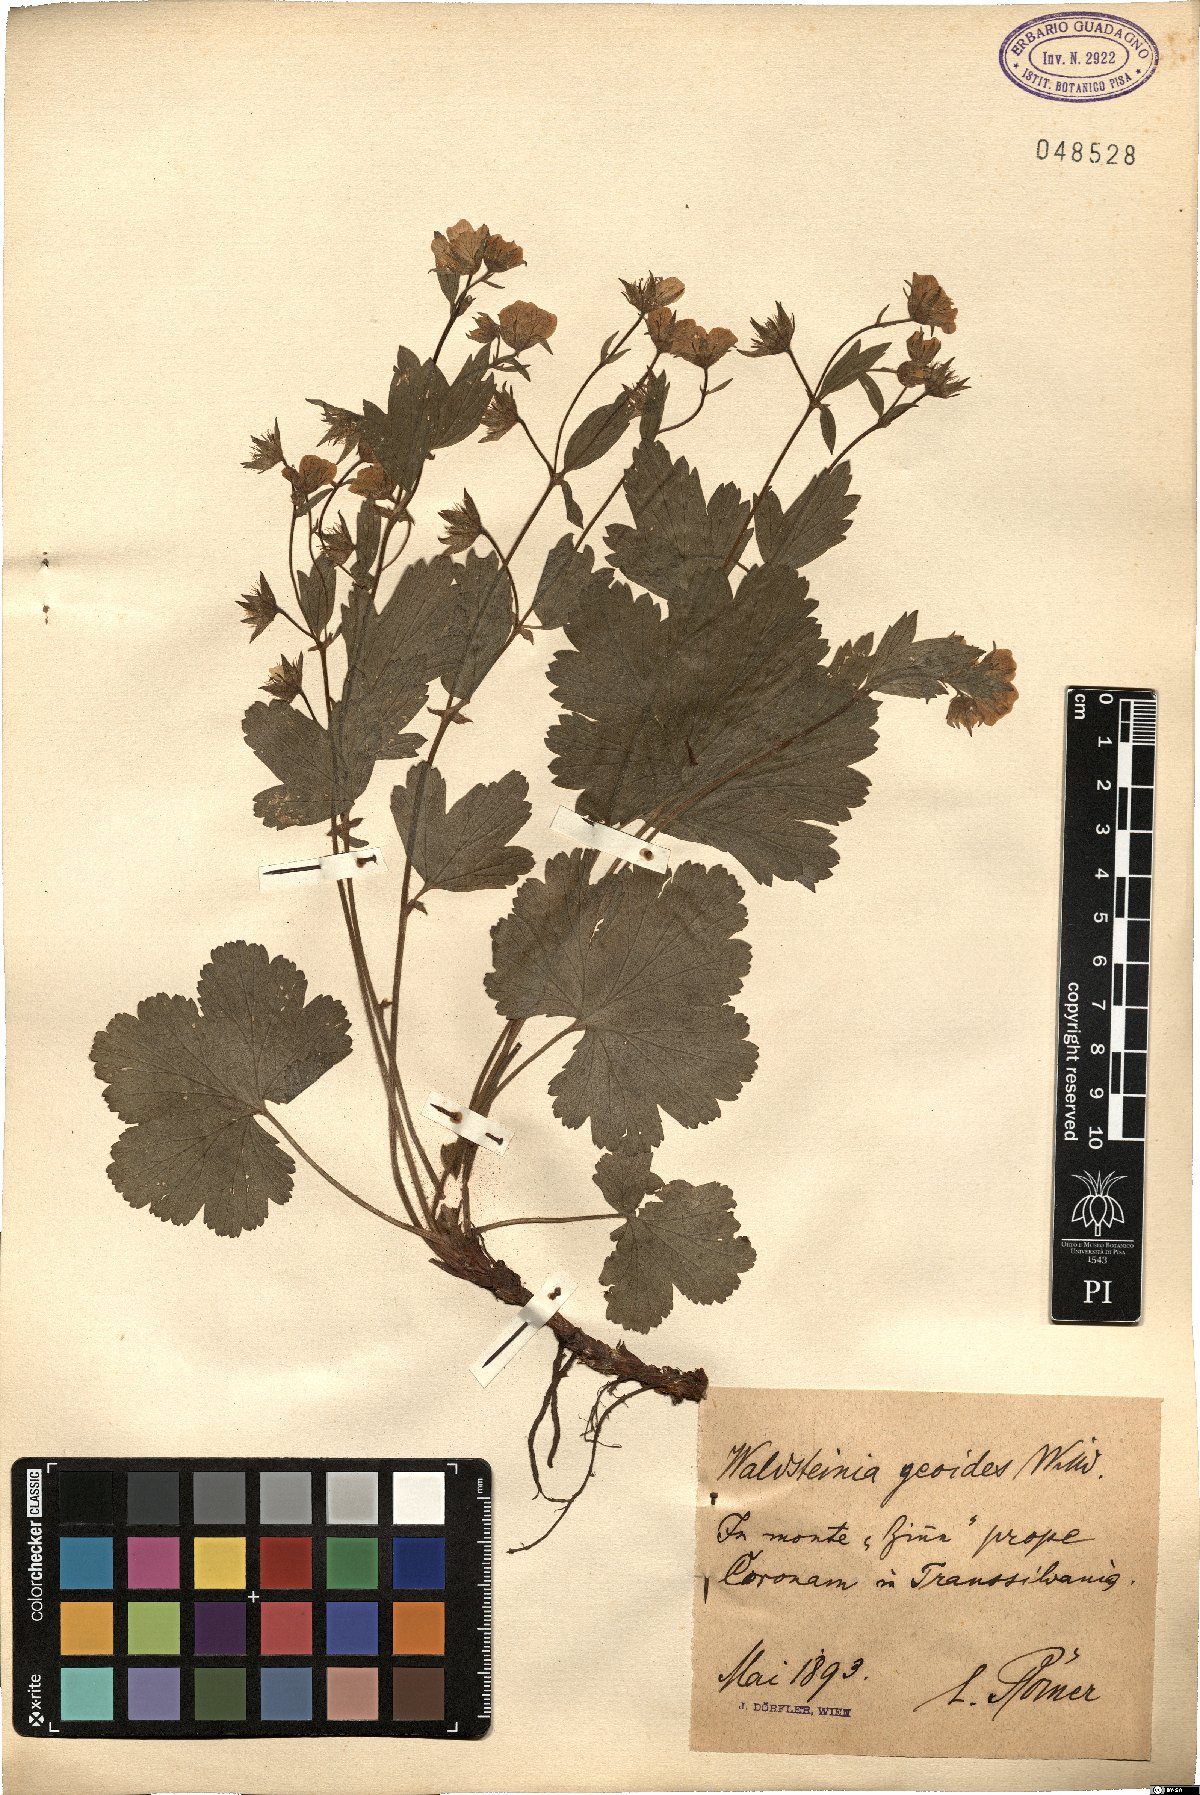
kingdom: Plantae
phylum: Tracheophyta
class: Magnoliopsida
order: Rosales
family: Rosaceae
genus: Geum
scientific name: Geum waldsteinia
